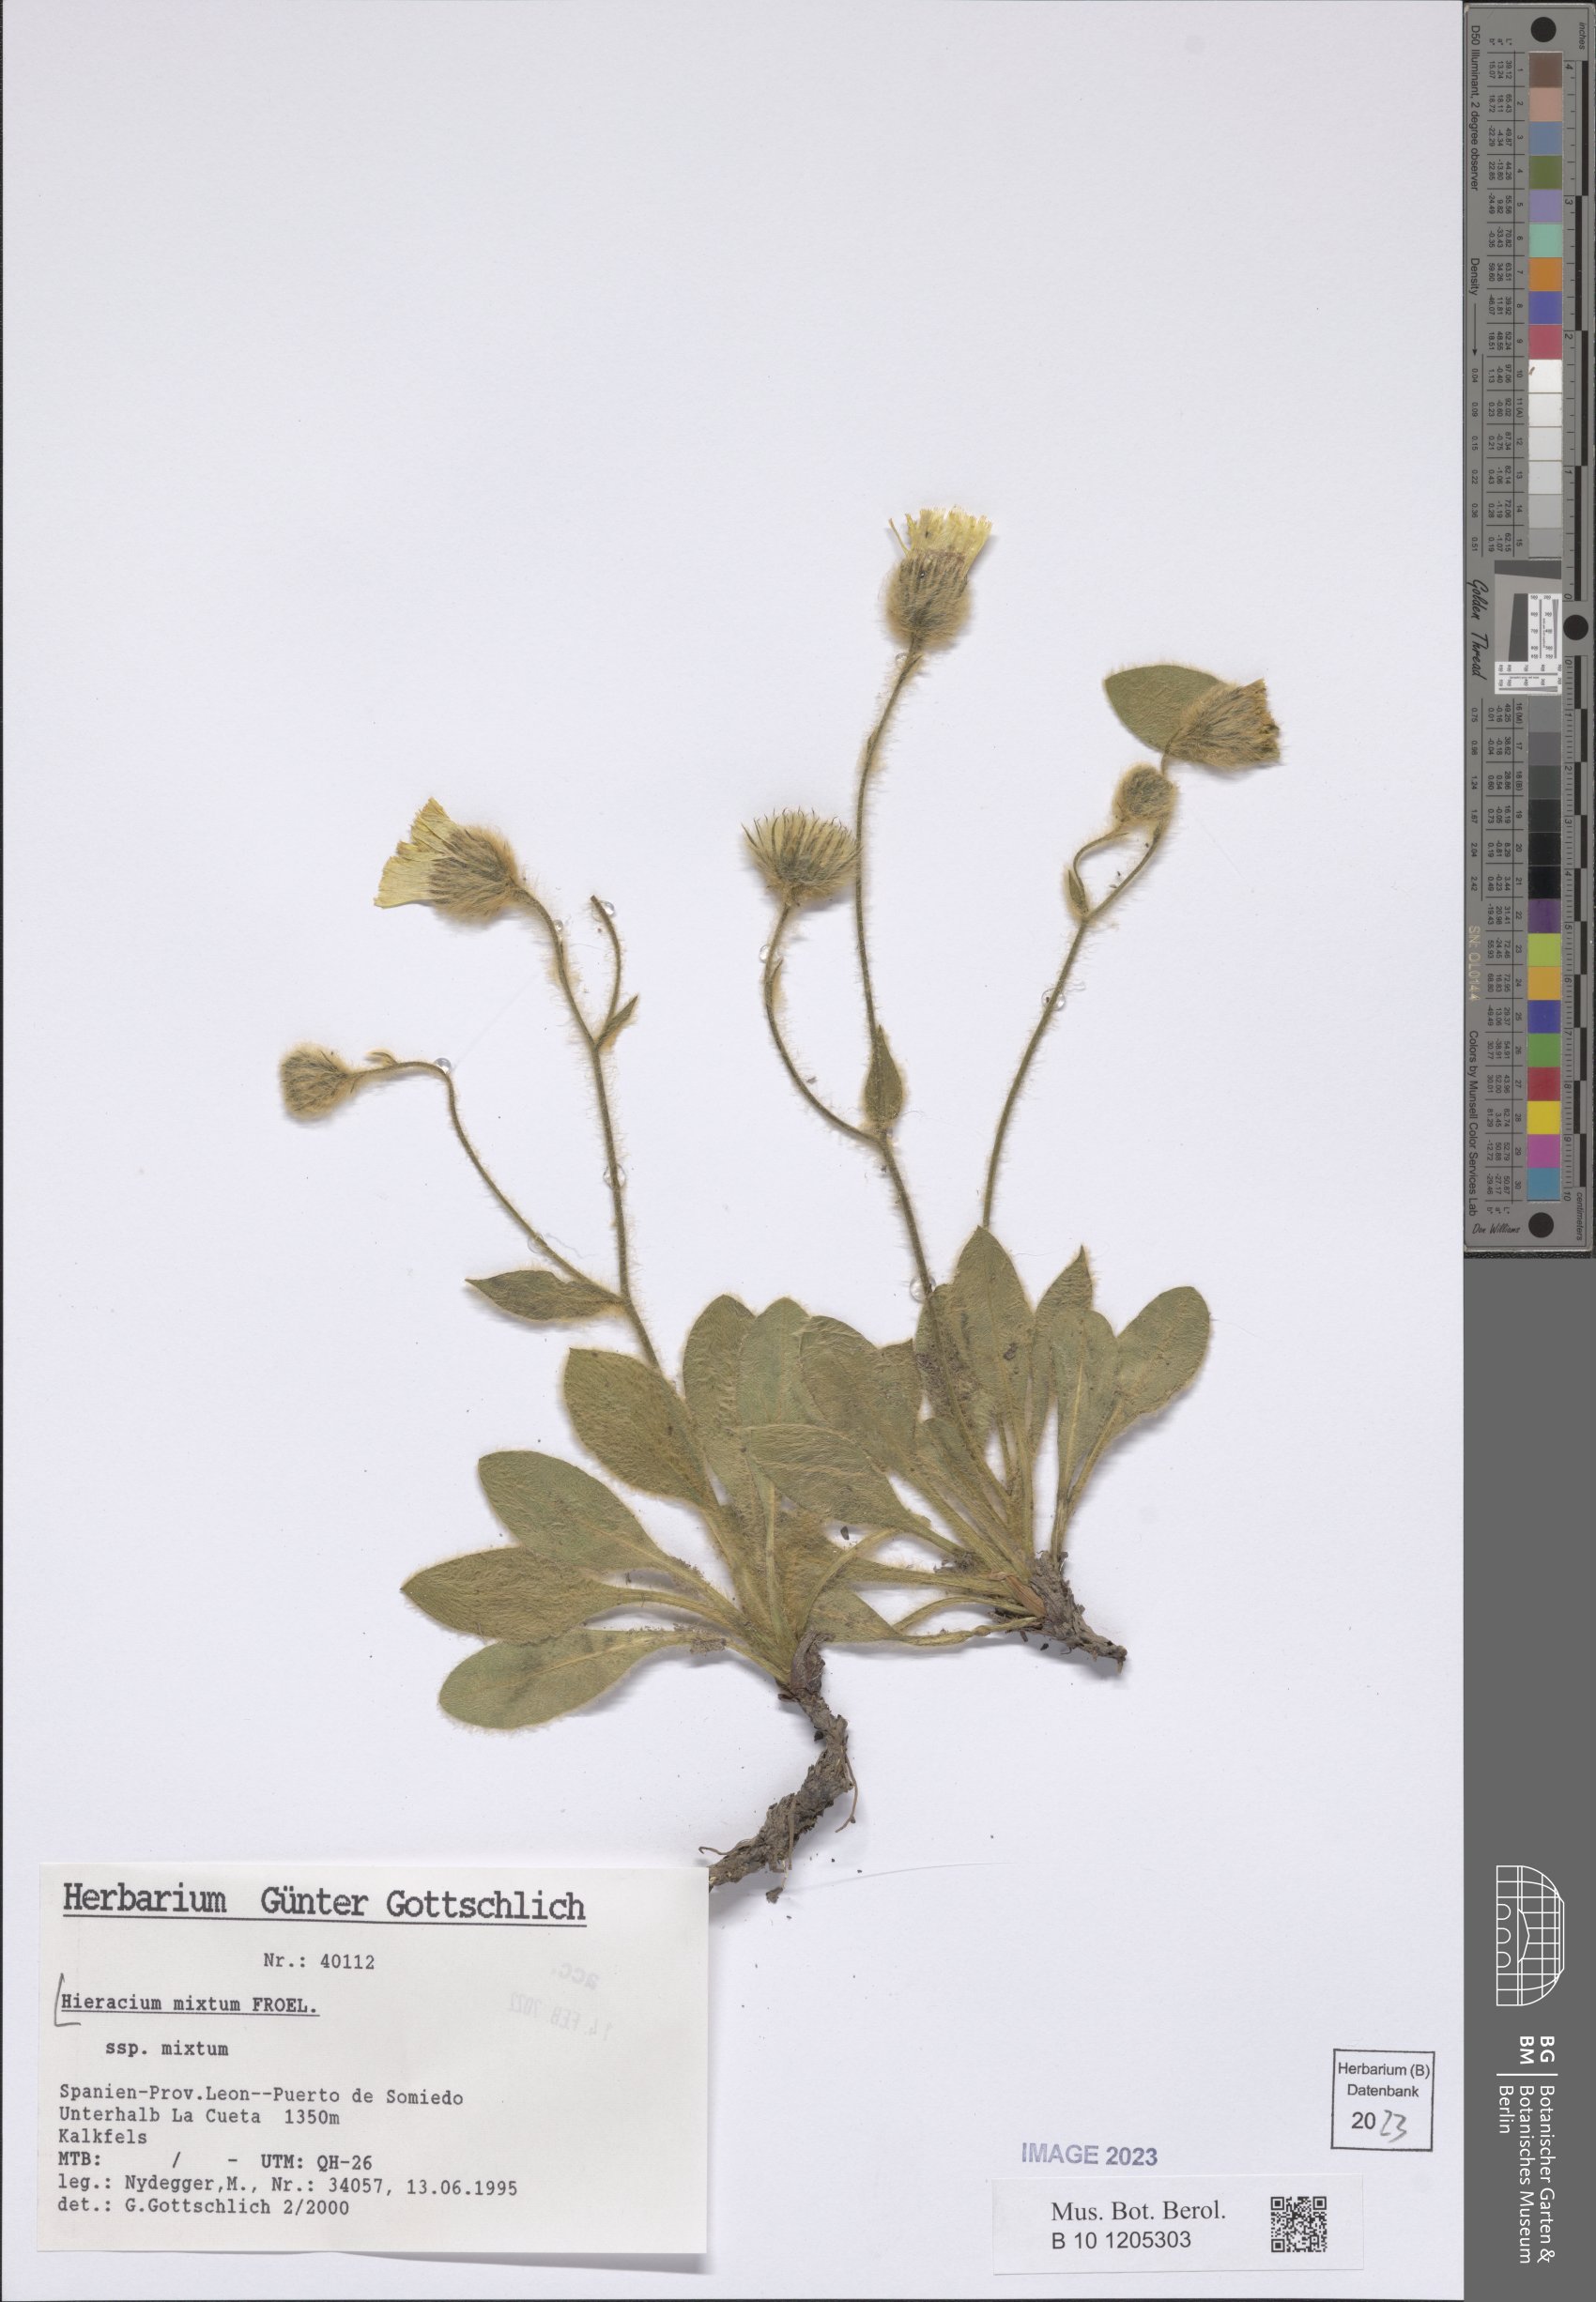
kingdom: Plantae
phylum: Tracheophyta
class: Magnoliopsida
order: Asterales
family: Asteraceae
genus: Hieracium
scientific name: Hieracium mixtum
